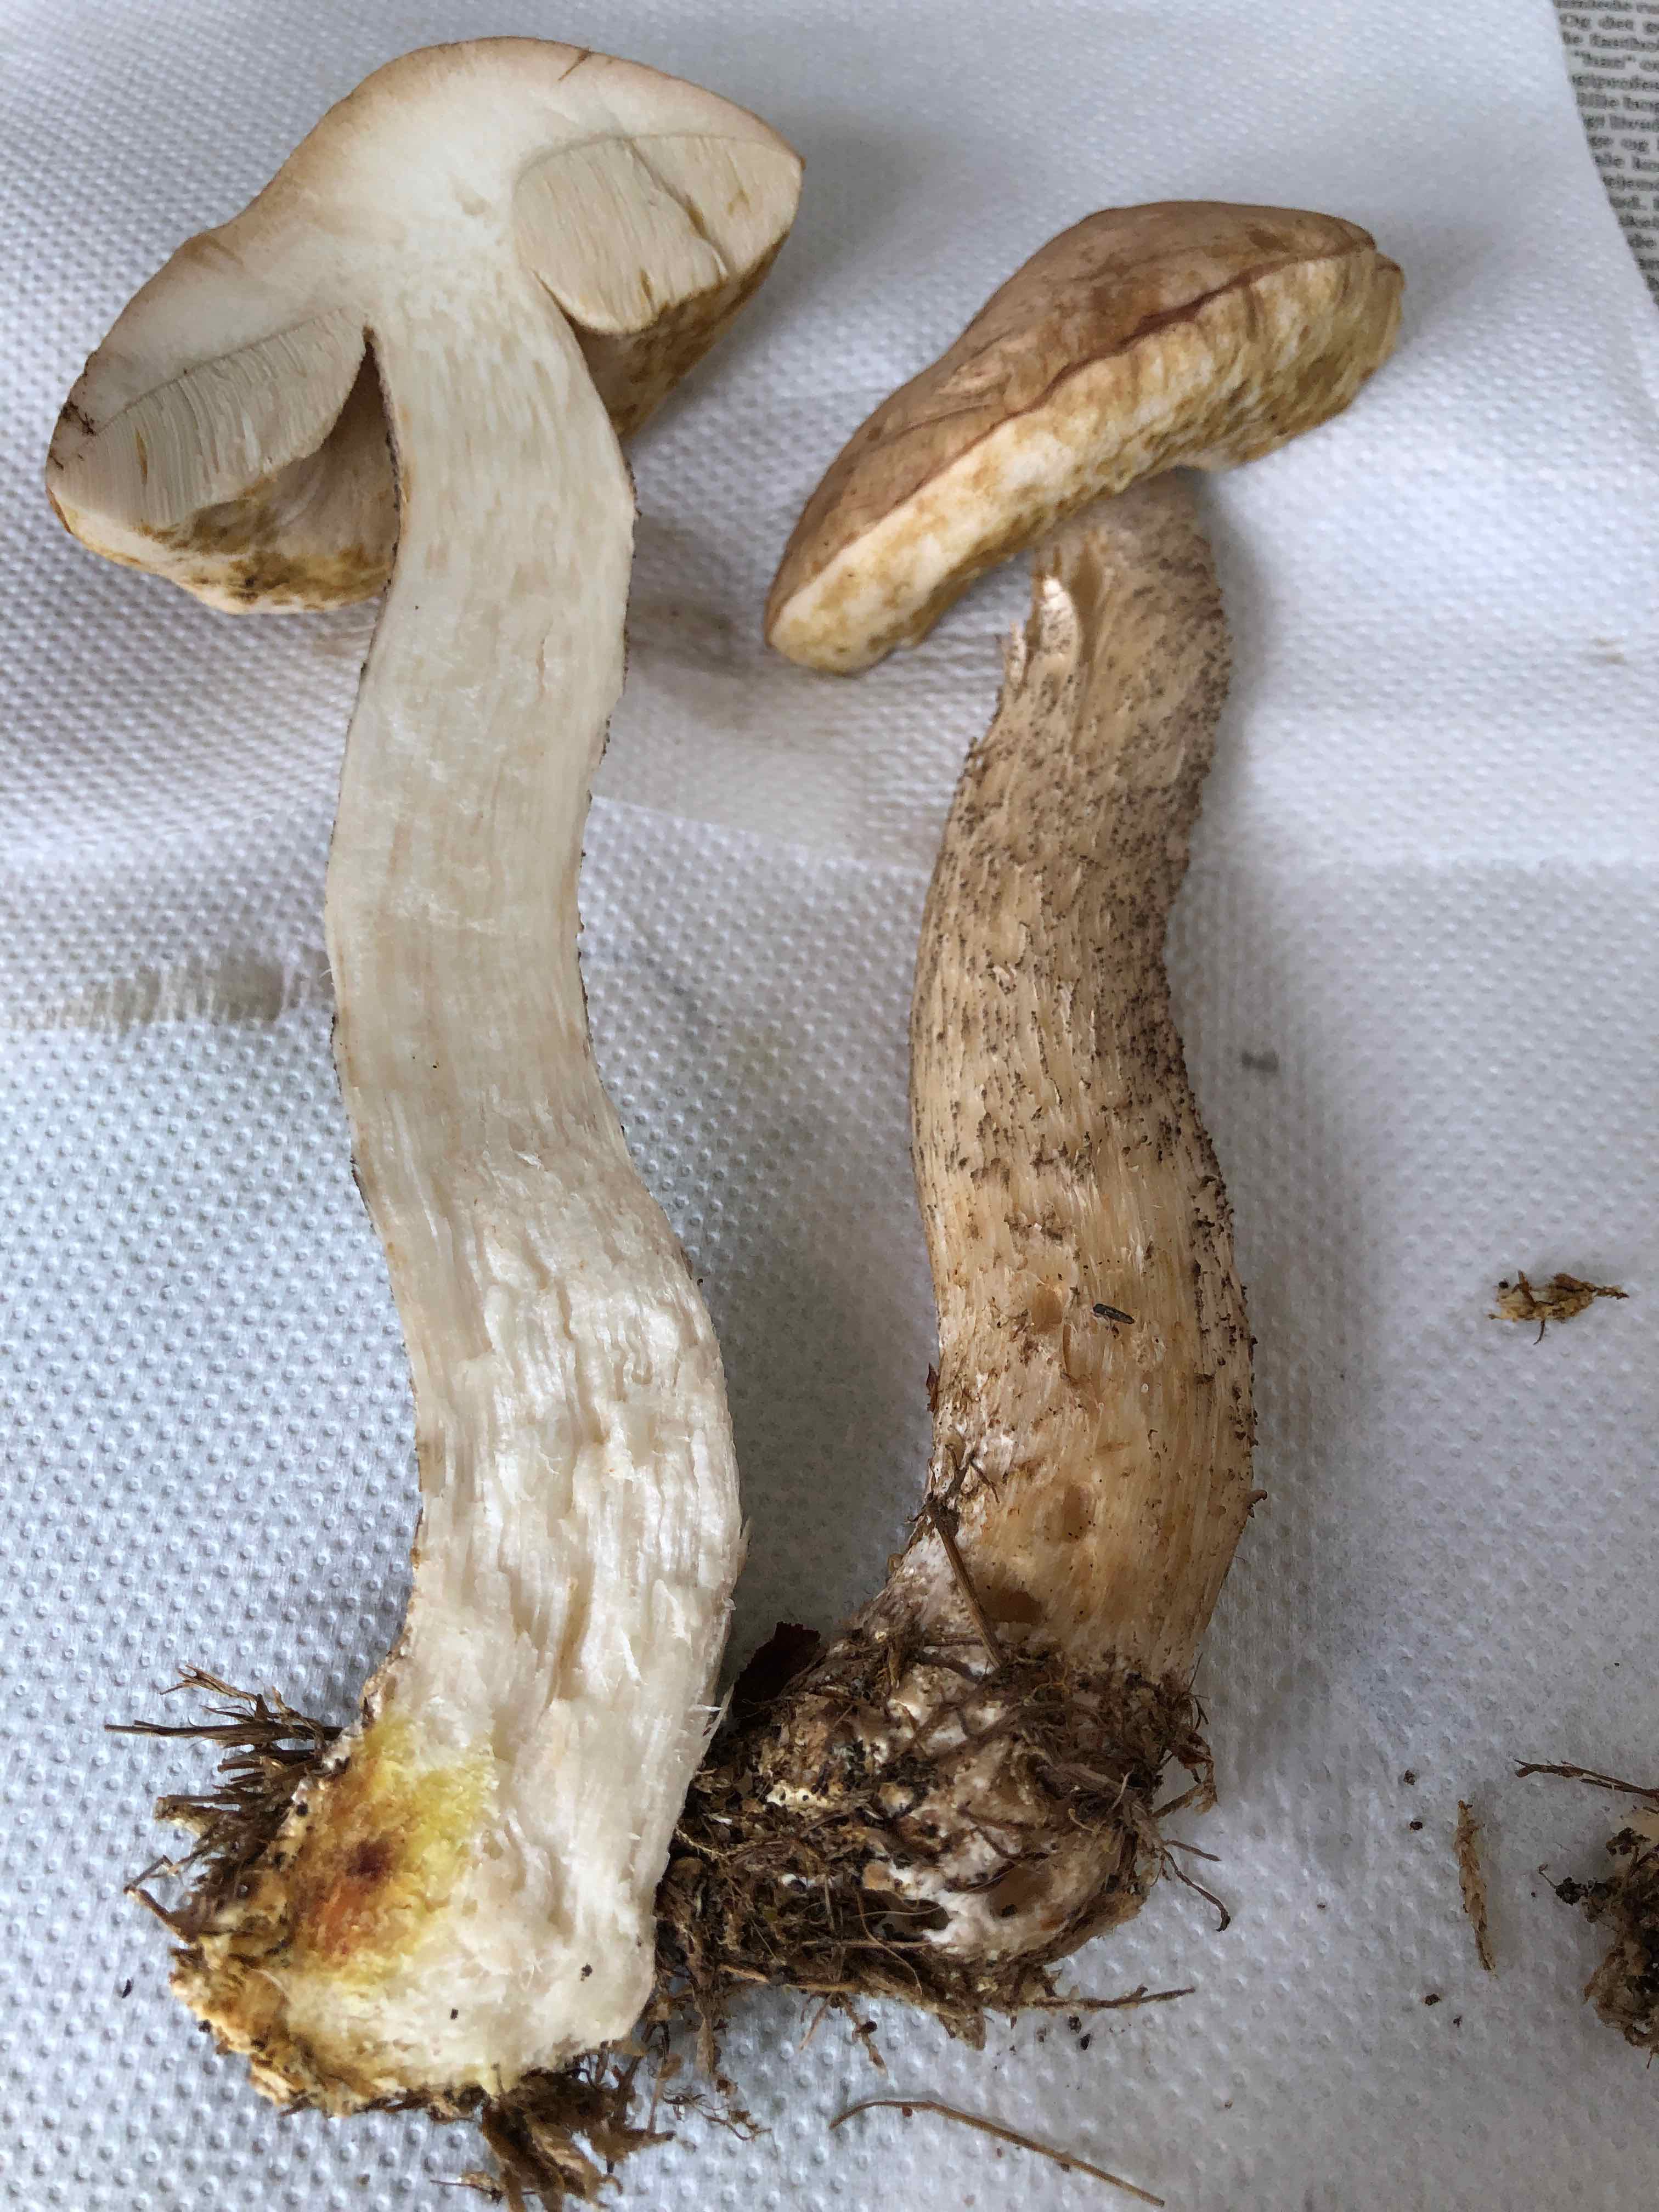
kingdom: Fungi
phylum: Basidiomycota
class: Agaricomycetes
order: Boletales
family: Boletaceae
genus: Leccinum
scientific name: Leccinum
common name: skælrørhat
